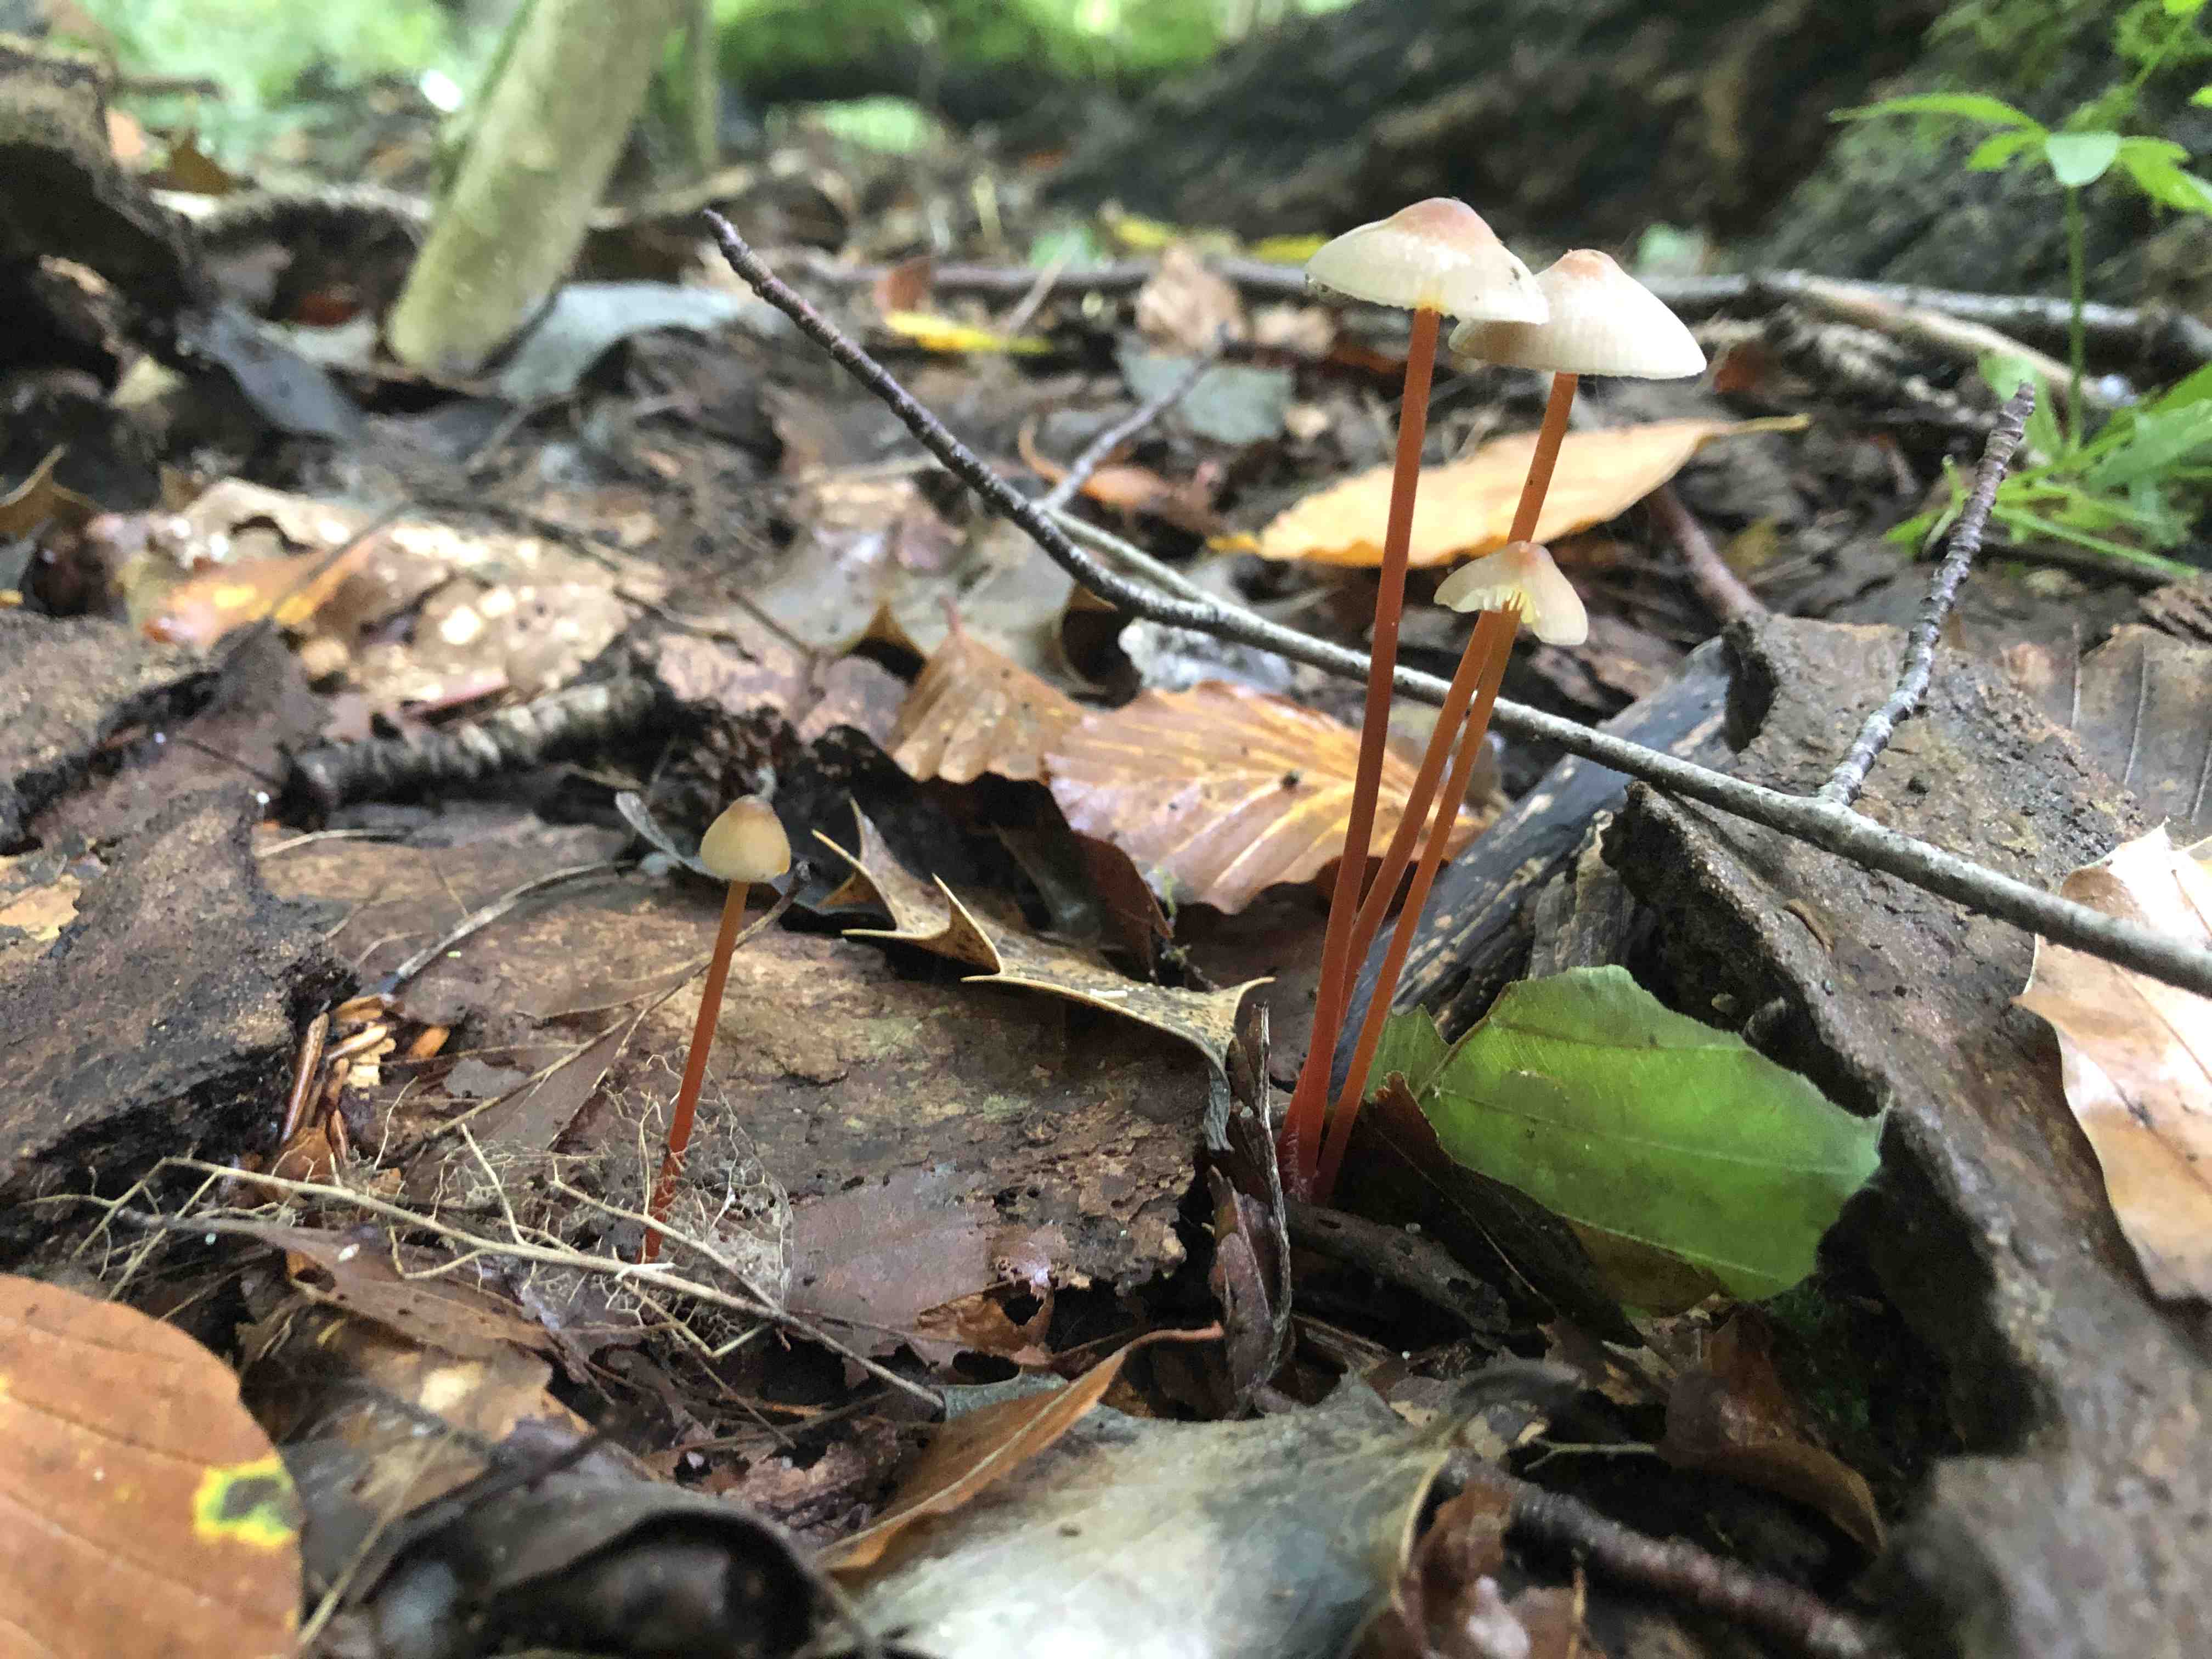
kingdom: Fungi
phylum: Basidiomycota
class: Agaricomycetes
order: Agaricales
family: Mycenaceae
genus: Mycena
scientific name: Mycena crocata
